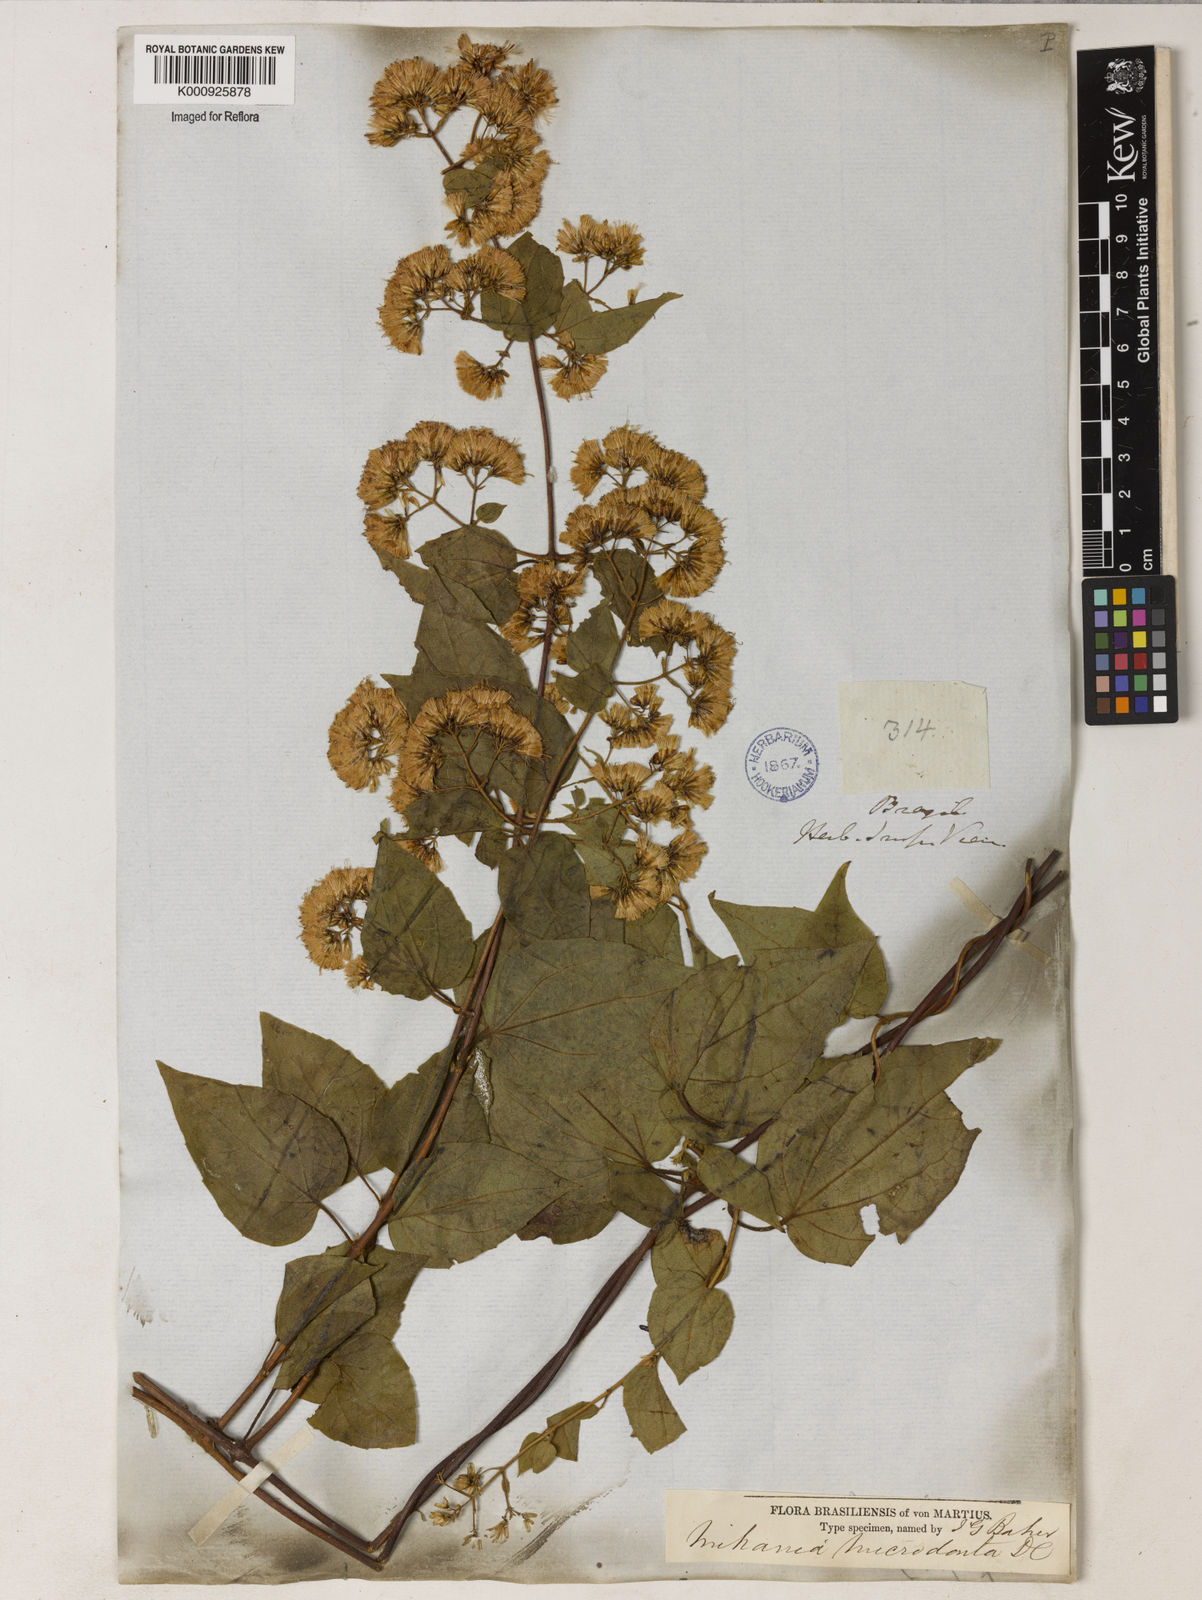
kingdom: Plantae
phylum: Tracheophyta
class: Magnoliopsida
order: Asterales
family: Asteraceae
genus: Mikania
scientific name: Mikania microdonta
